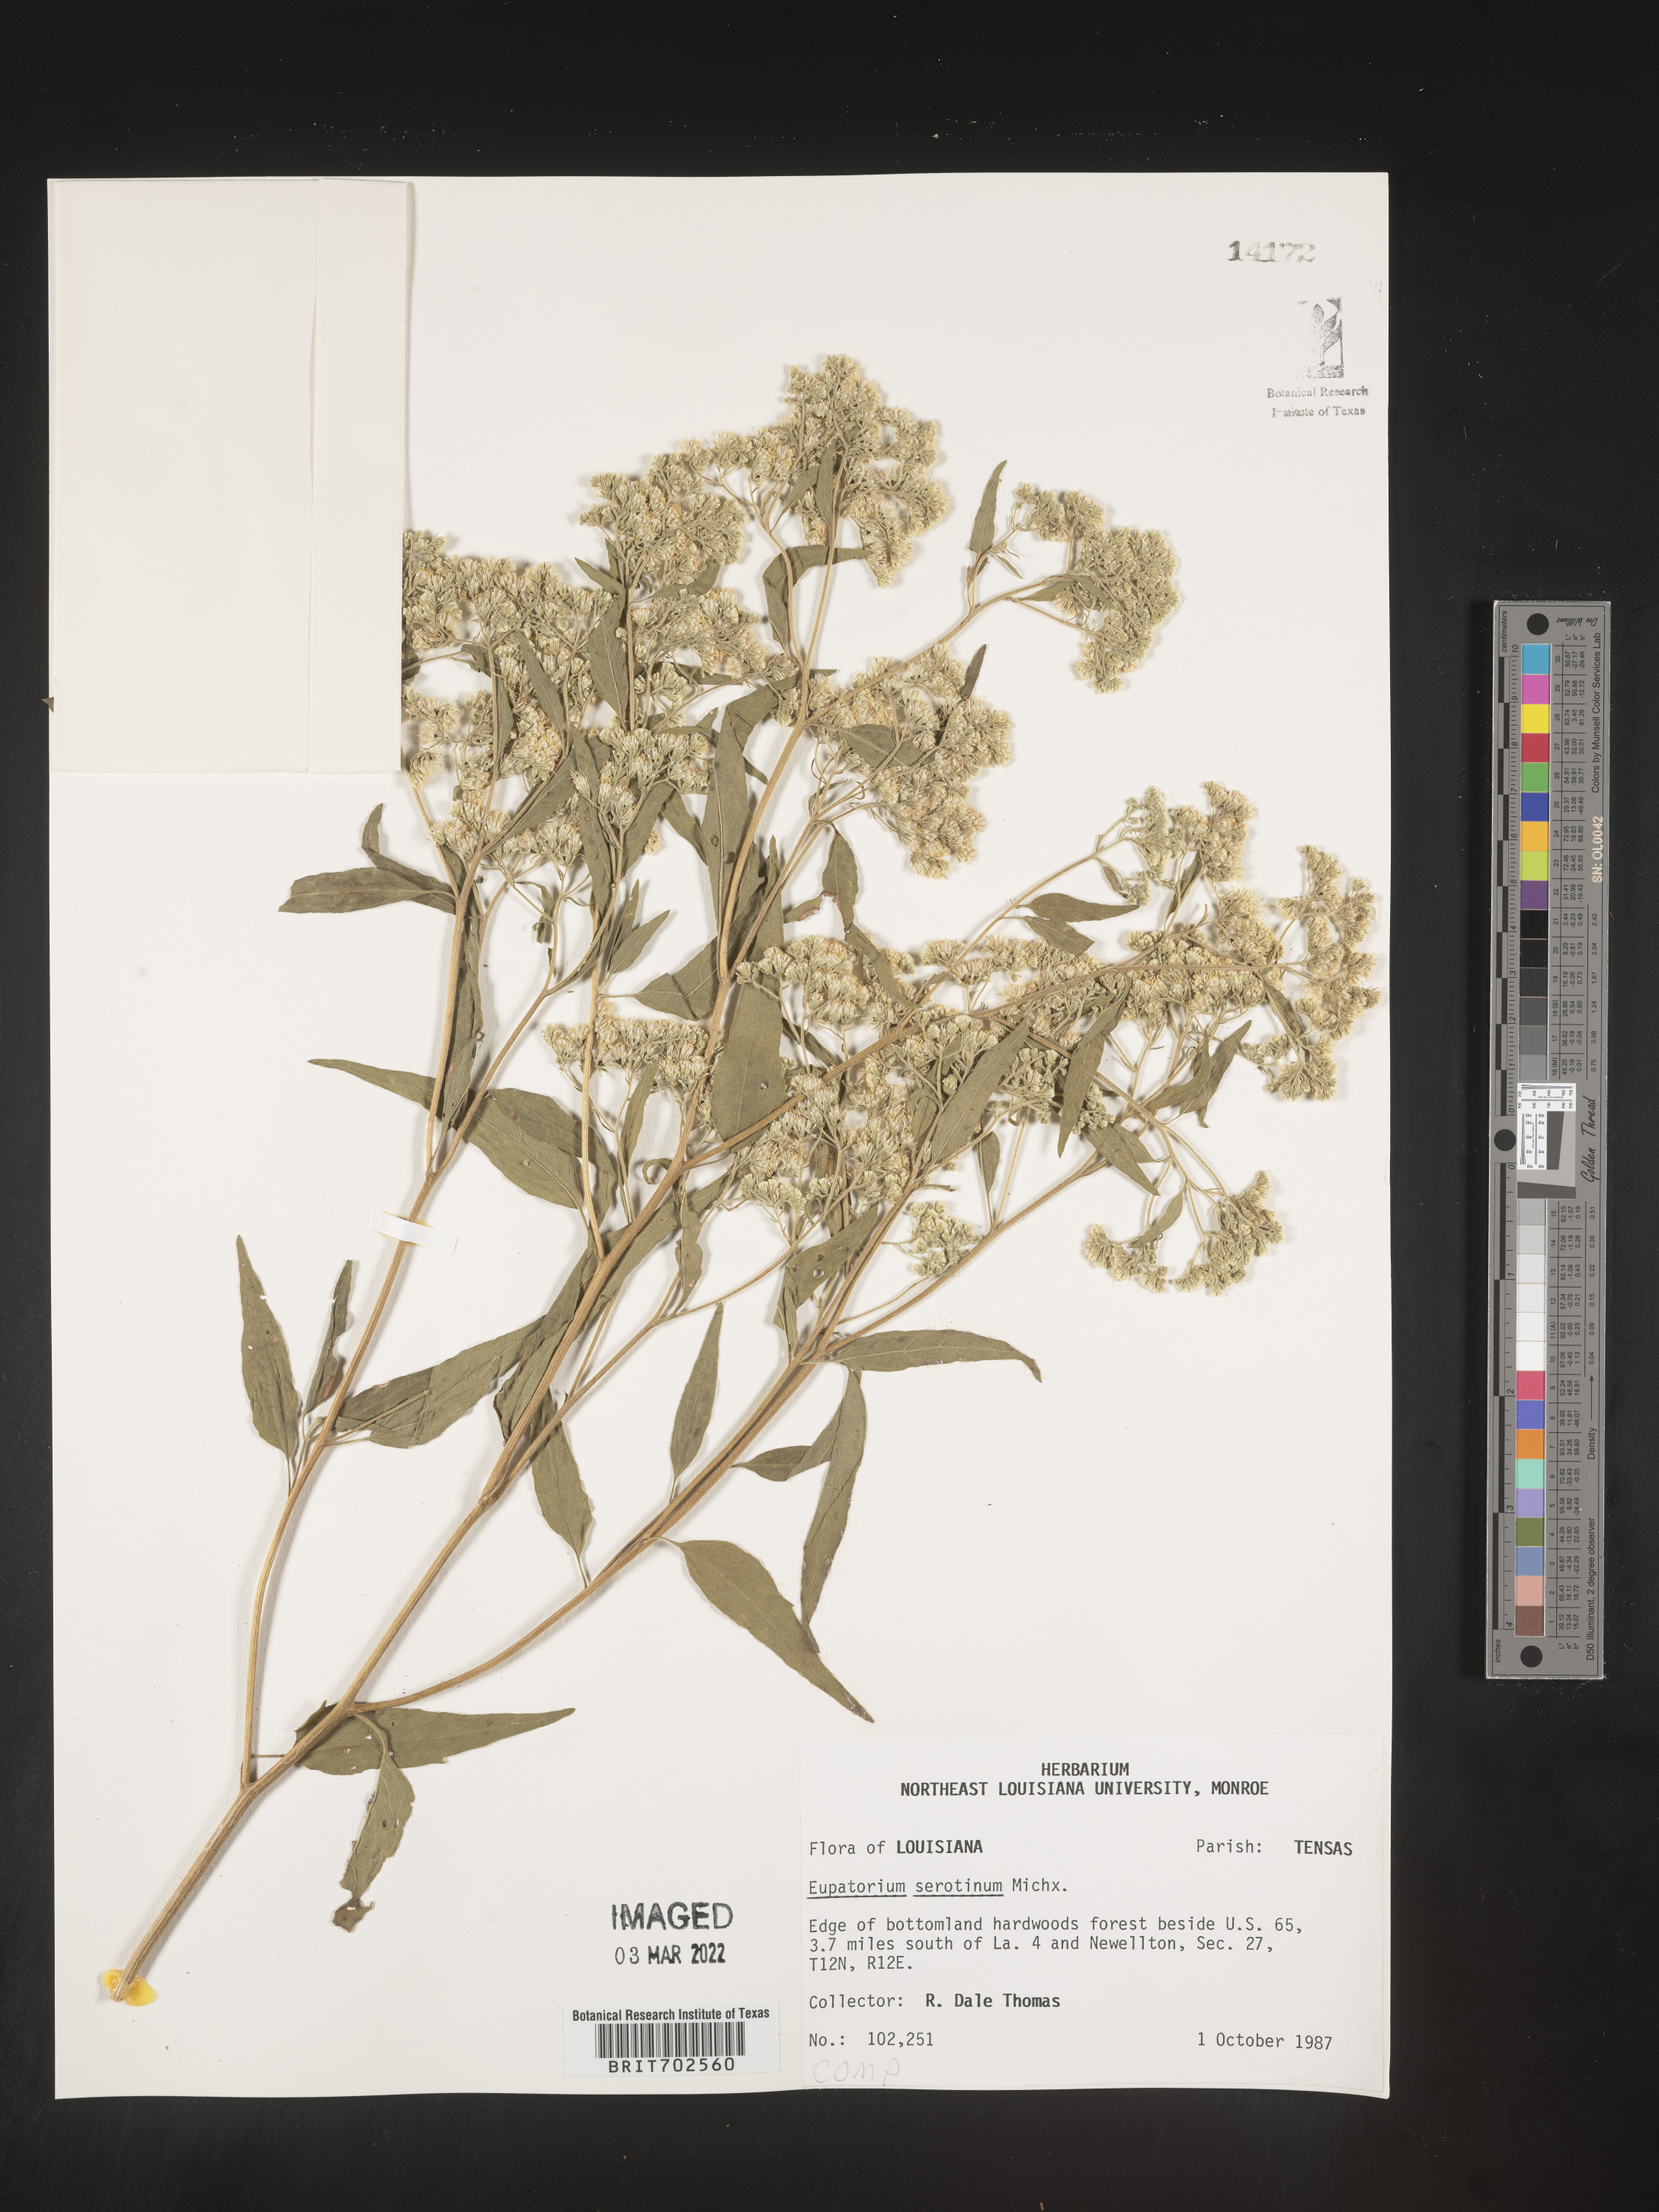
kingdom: Plantae
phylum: Tracheophyta
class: Magnoliopsida
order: Asterales
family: Asteraceae
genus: Eupatorium
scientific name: Eupatorium serotinum
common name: Late boneset
